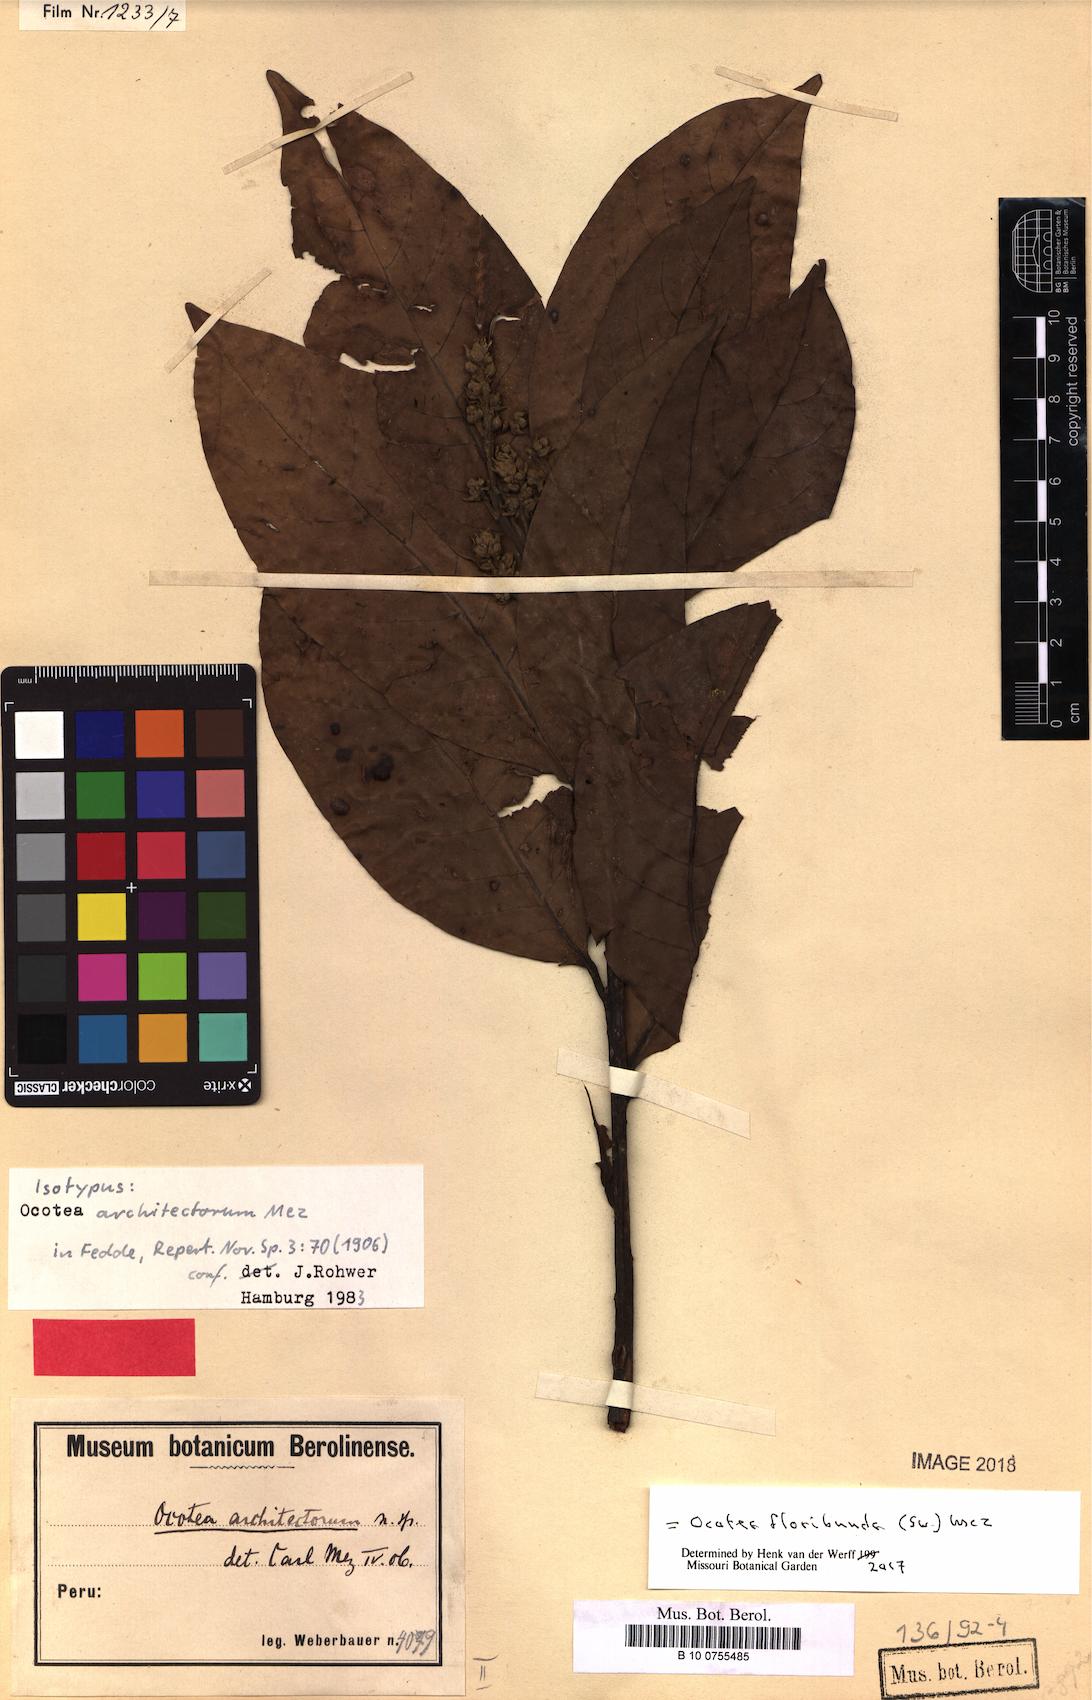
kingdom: Plantae
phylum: Tracheophyta
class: Magnoliopsida
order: Laurales
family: Lauraceae
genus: Ocotea
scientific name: Ocotea floribunda
